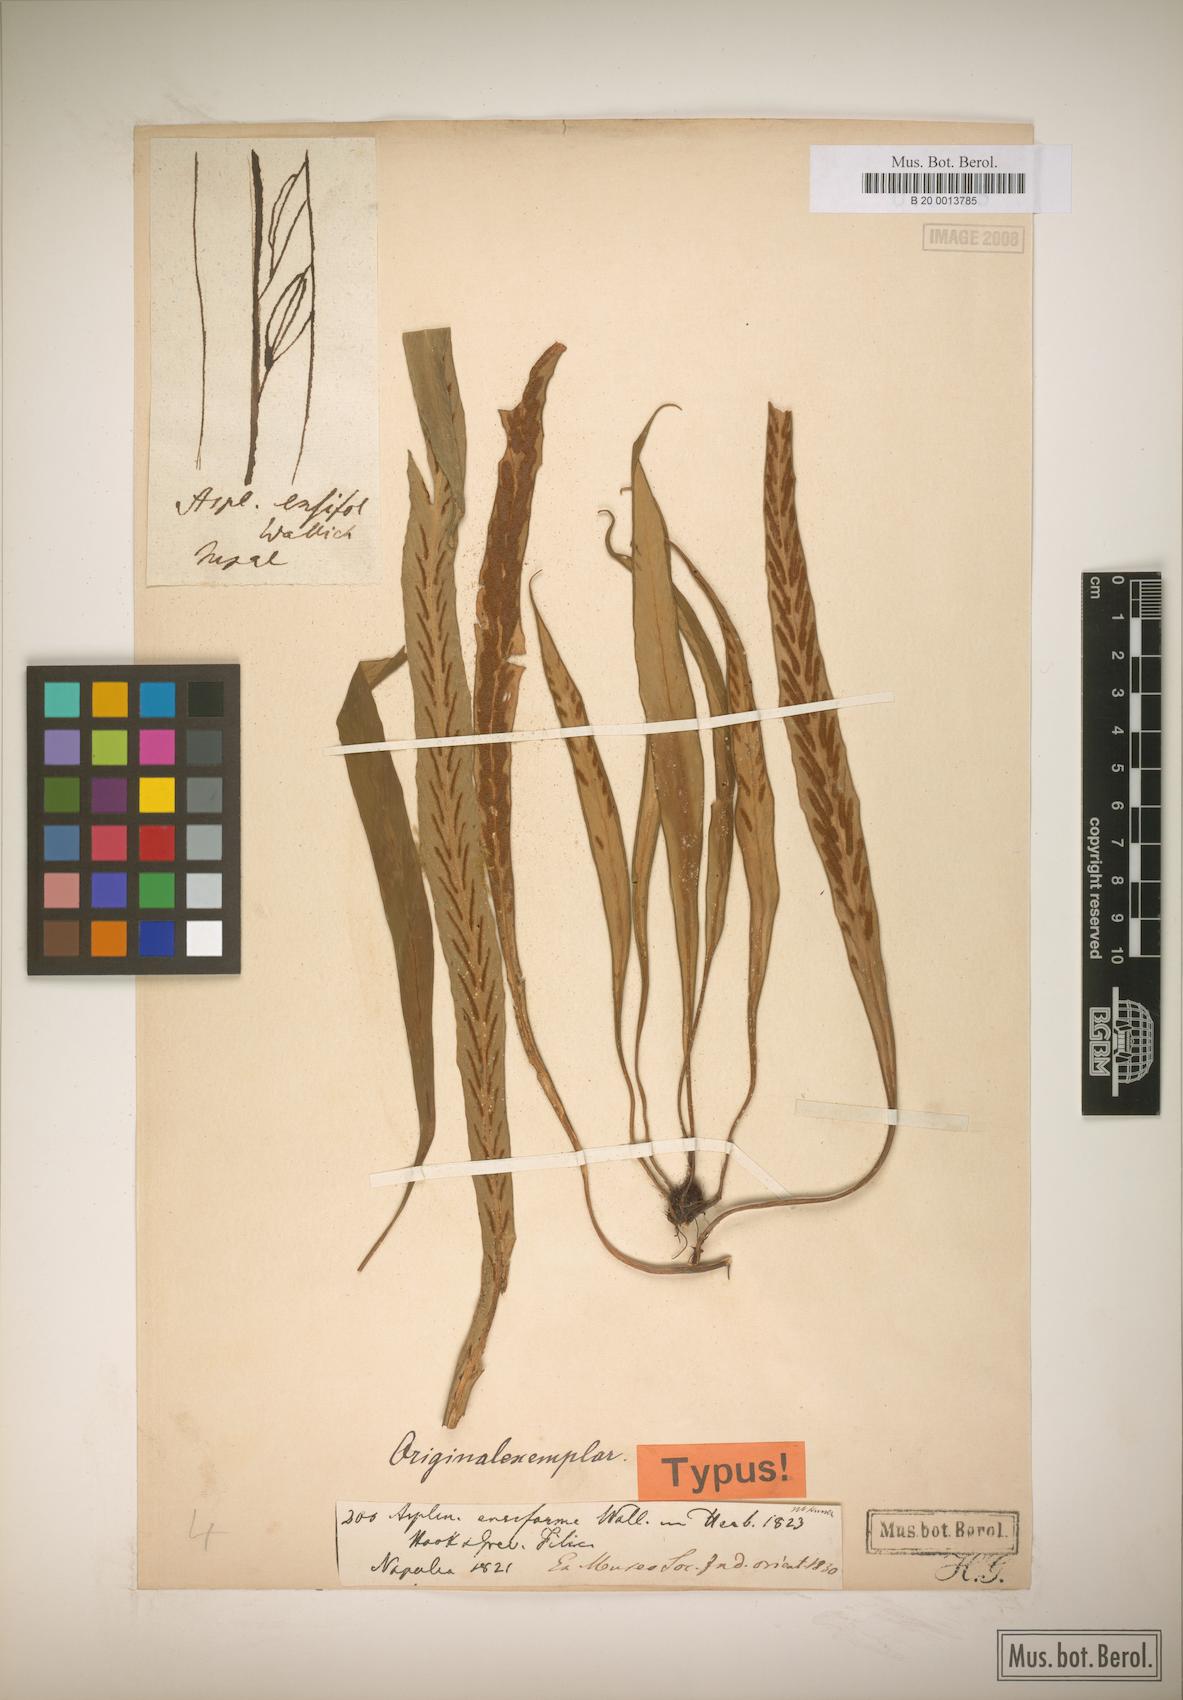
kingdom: Plantae
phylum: Tracheophyta
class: Polypodiopsida
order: Polypodiales
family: Aspleniaceae
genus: Asplenium
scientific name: Asplenium ensiforme
